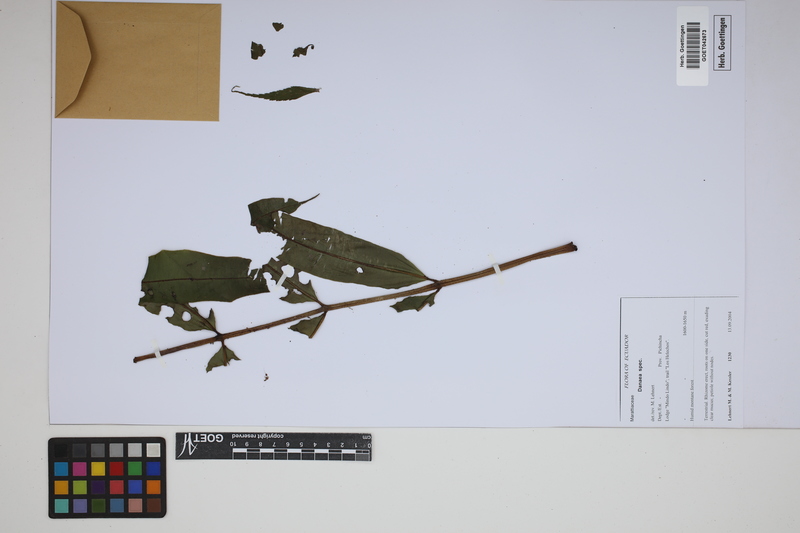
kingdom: Plantae
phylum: Tracheophyta
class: Polypodiopsida
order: Marattiales
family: Marattiaceae
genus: Danaea
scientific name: Danaea
